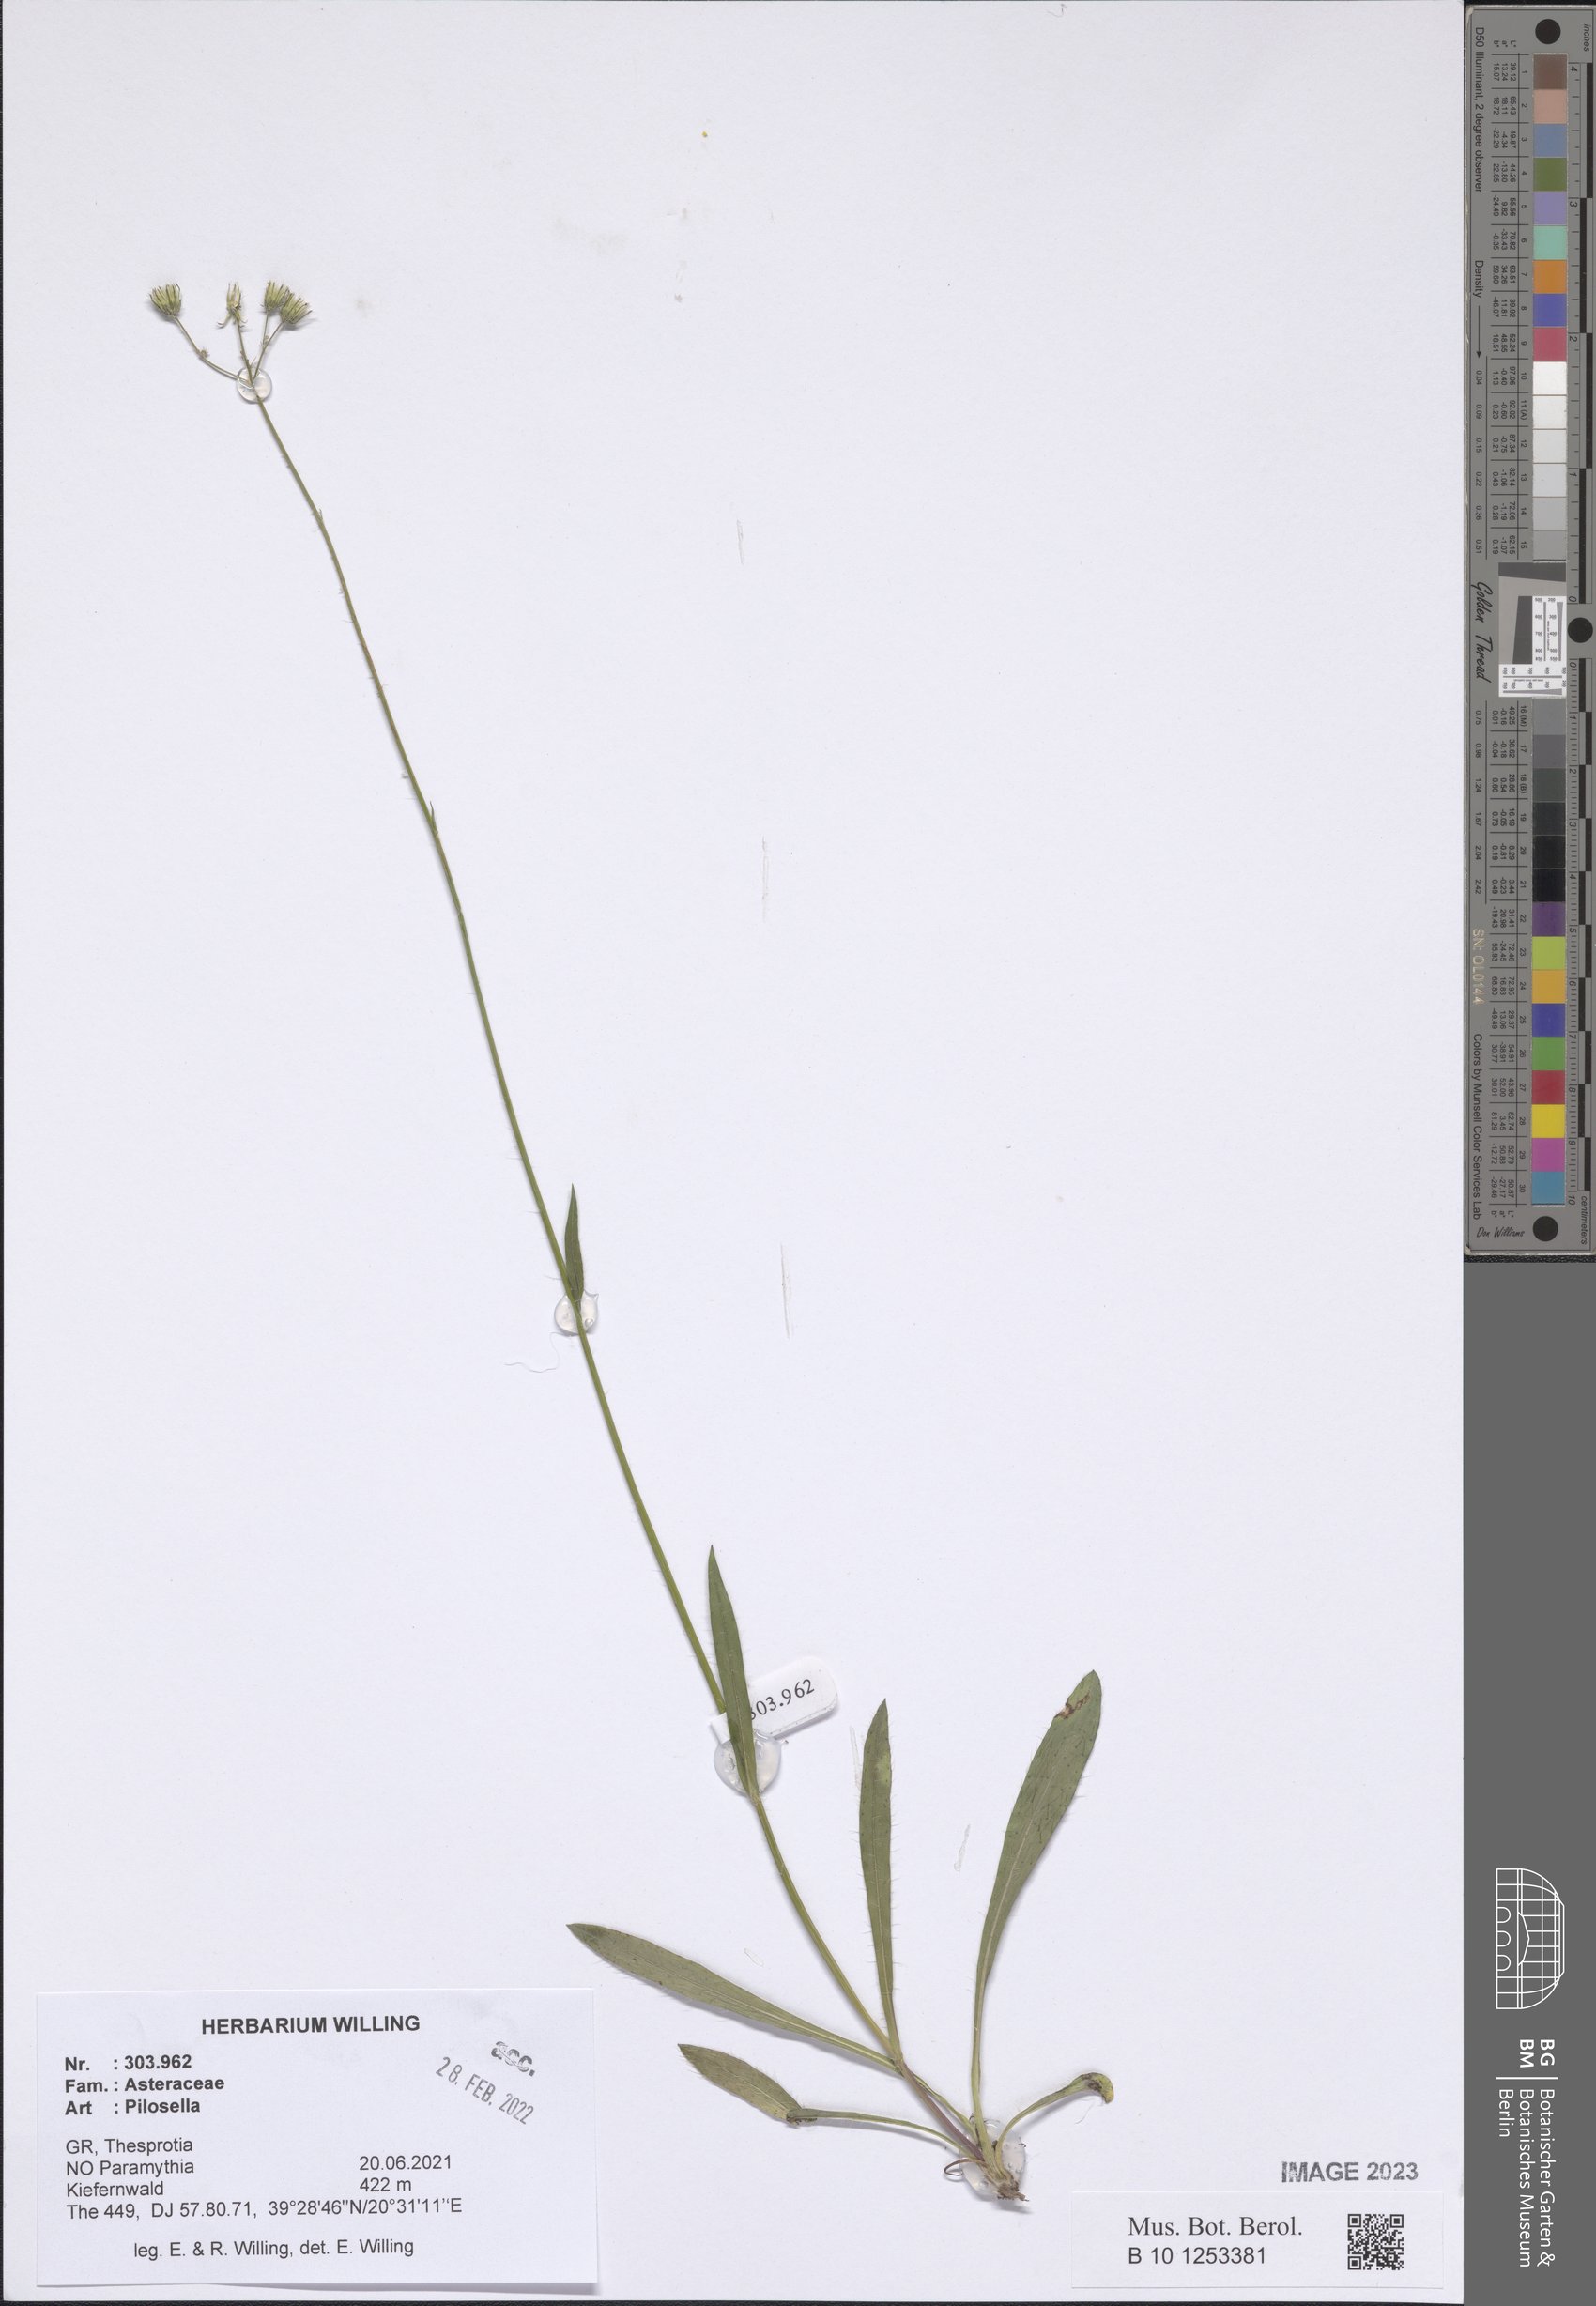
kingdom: Plantae
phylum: Tracheophyta
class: Magnoliopsida
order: Asterales
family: Asteraceae
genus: Pilosella
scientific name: Pilosella
